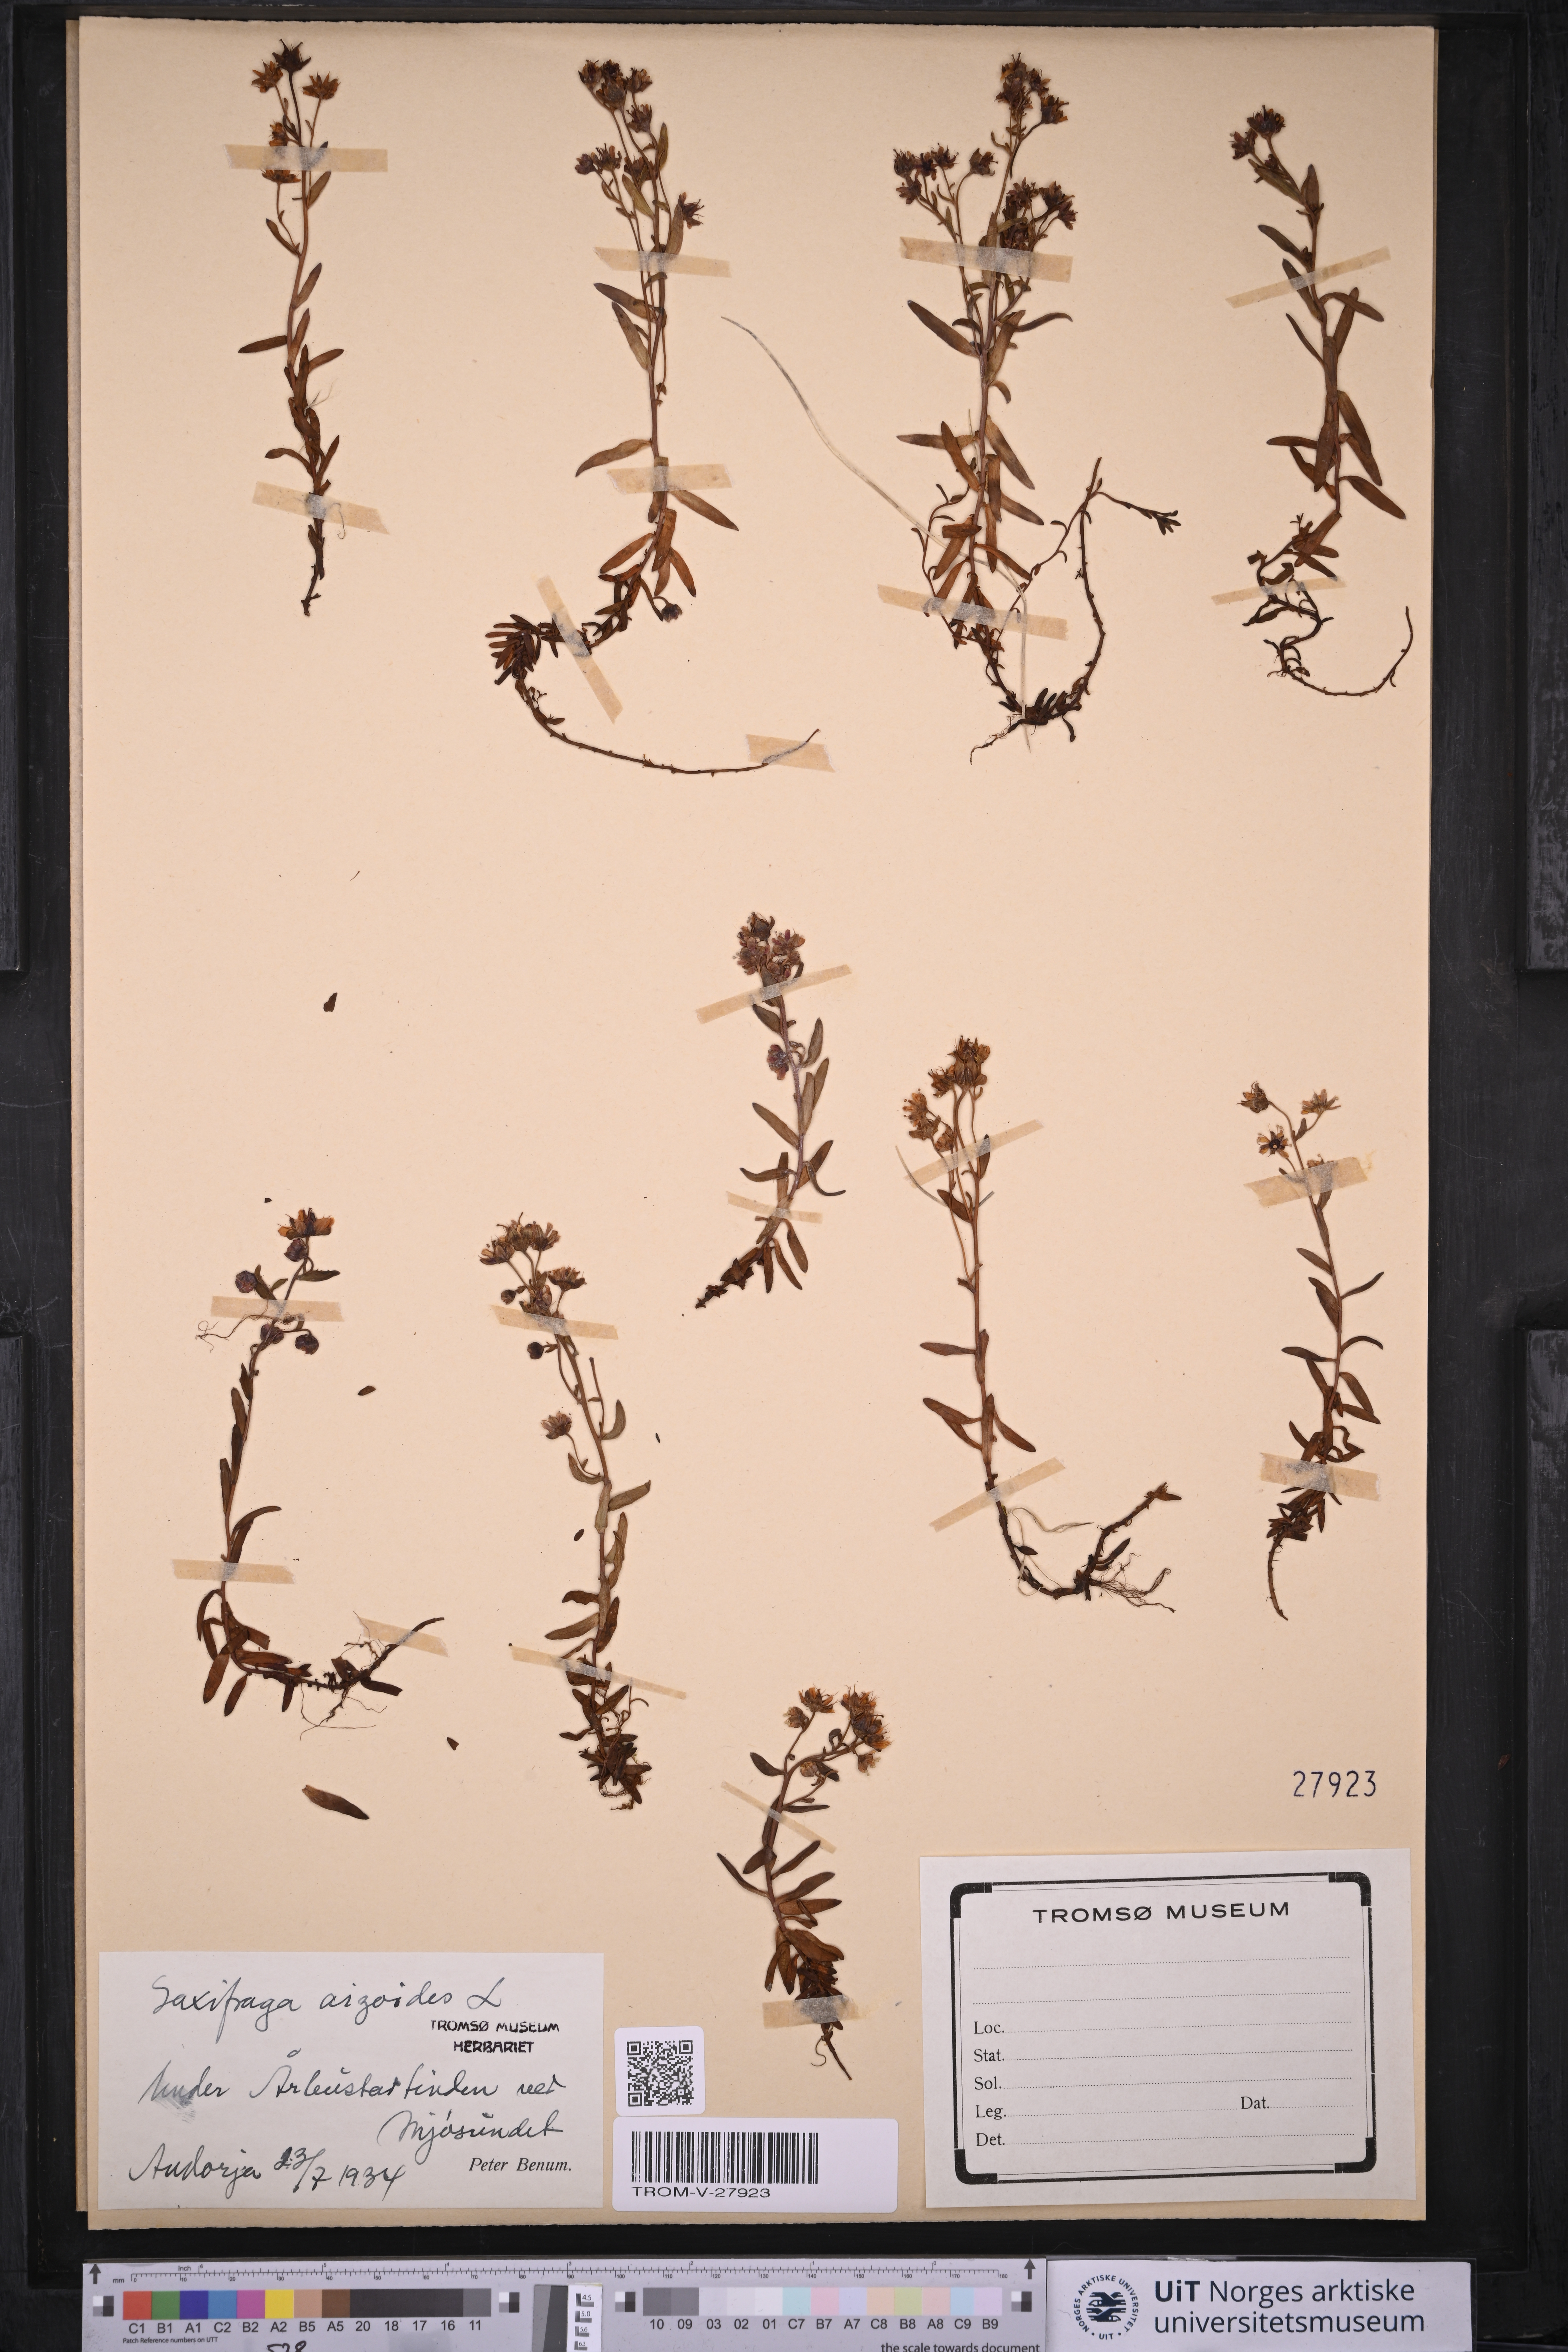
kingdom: Plantae
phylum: Tracheophyta
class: Magnoliopsida
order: Saxifragales
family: Saxifragaceae
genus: Saxifraga
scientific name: Saxifraga aizoides
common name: Yellow mountain saxifrage
